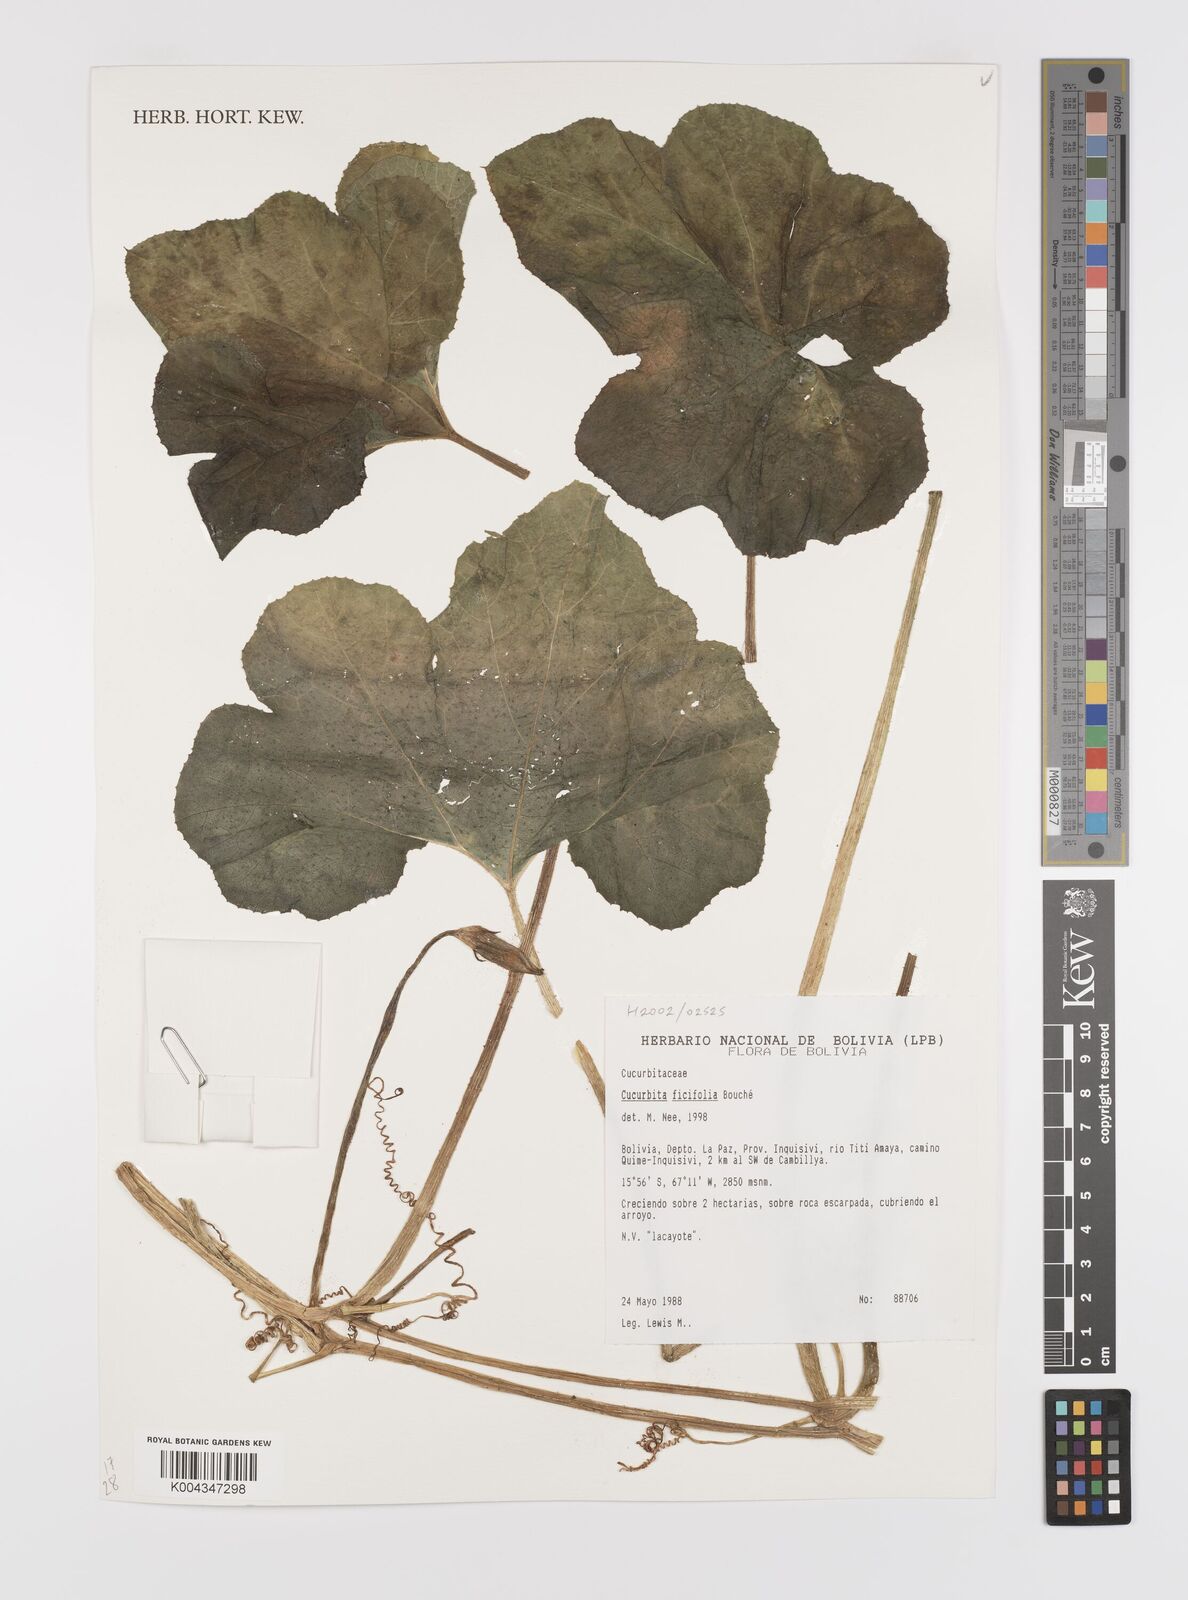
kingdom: Plantae
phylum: Tracheophyta
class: Magnoliopsida
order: Cucurbitales
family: Cucurbitaceae
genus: Cucurbita
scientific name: Cucurbita ficifolia
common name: Figleaf gourd
